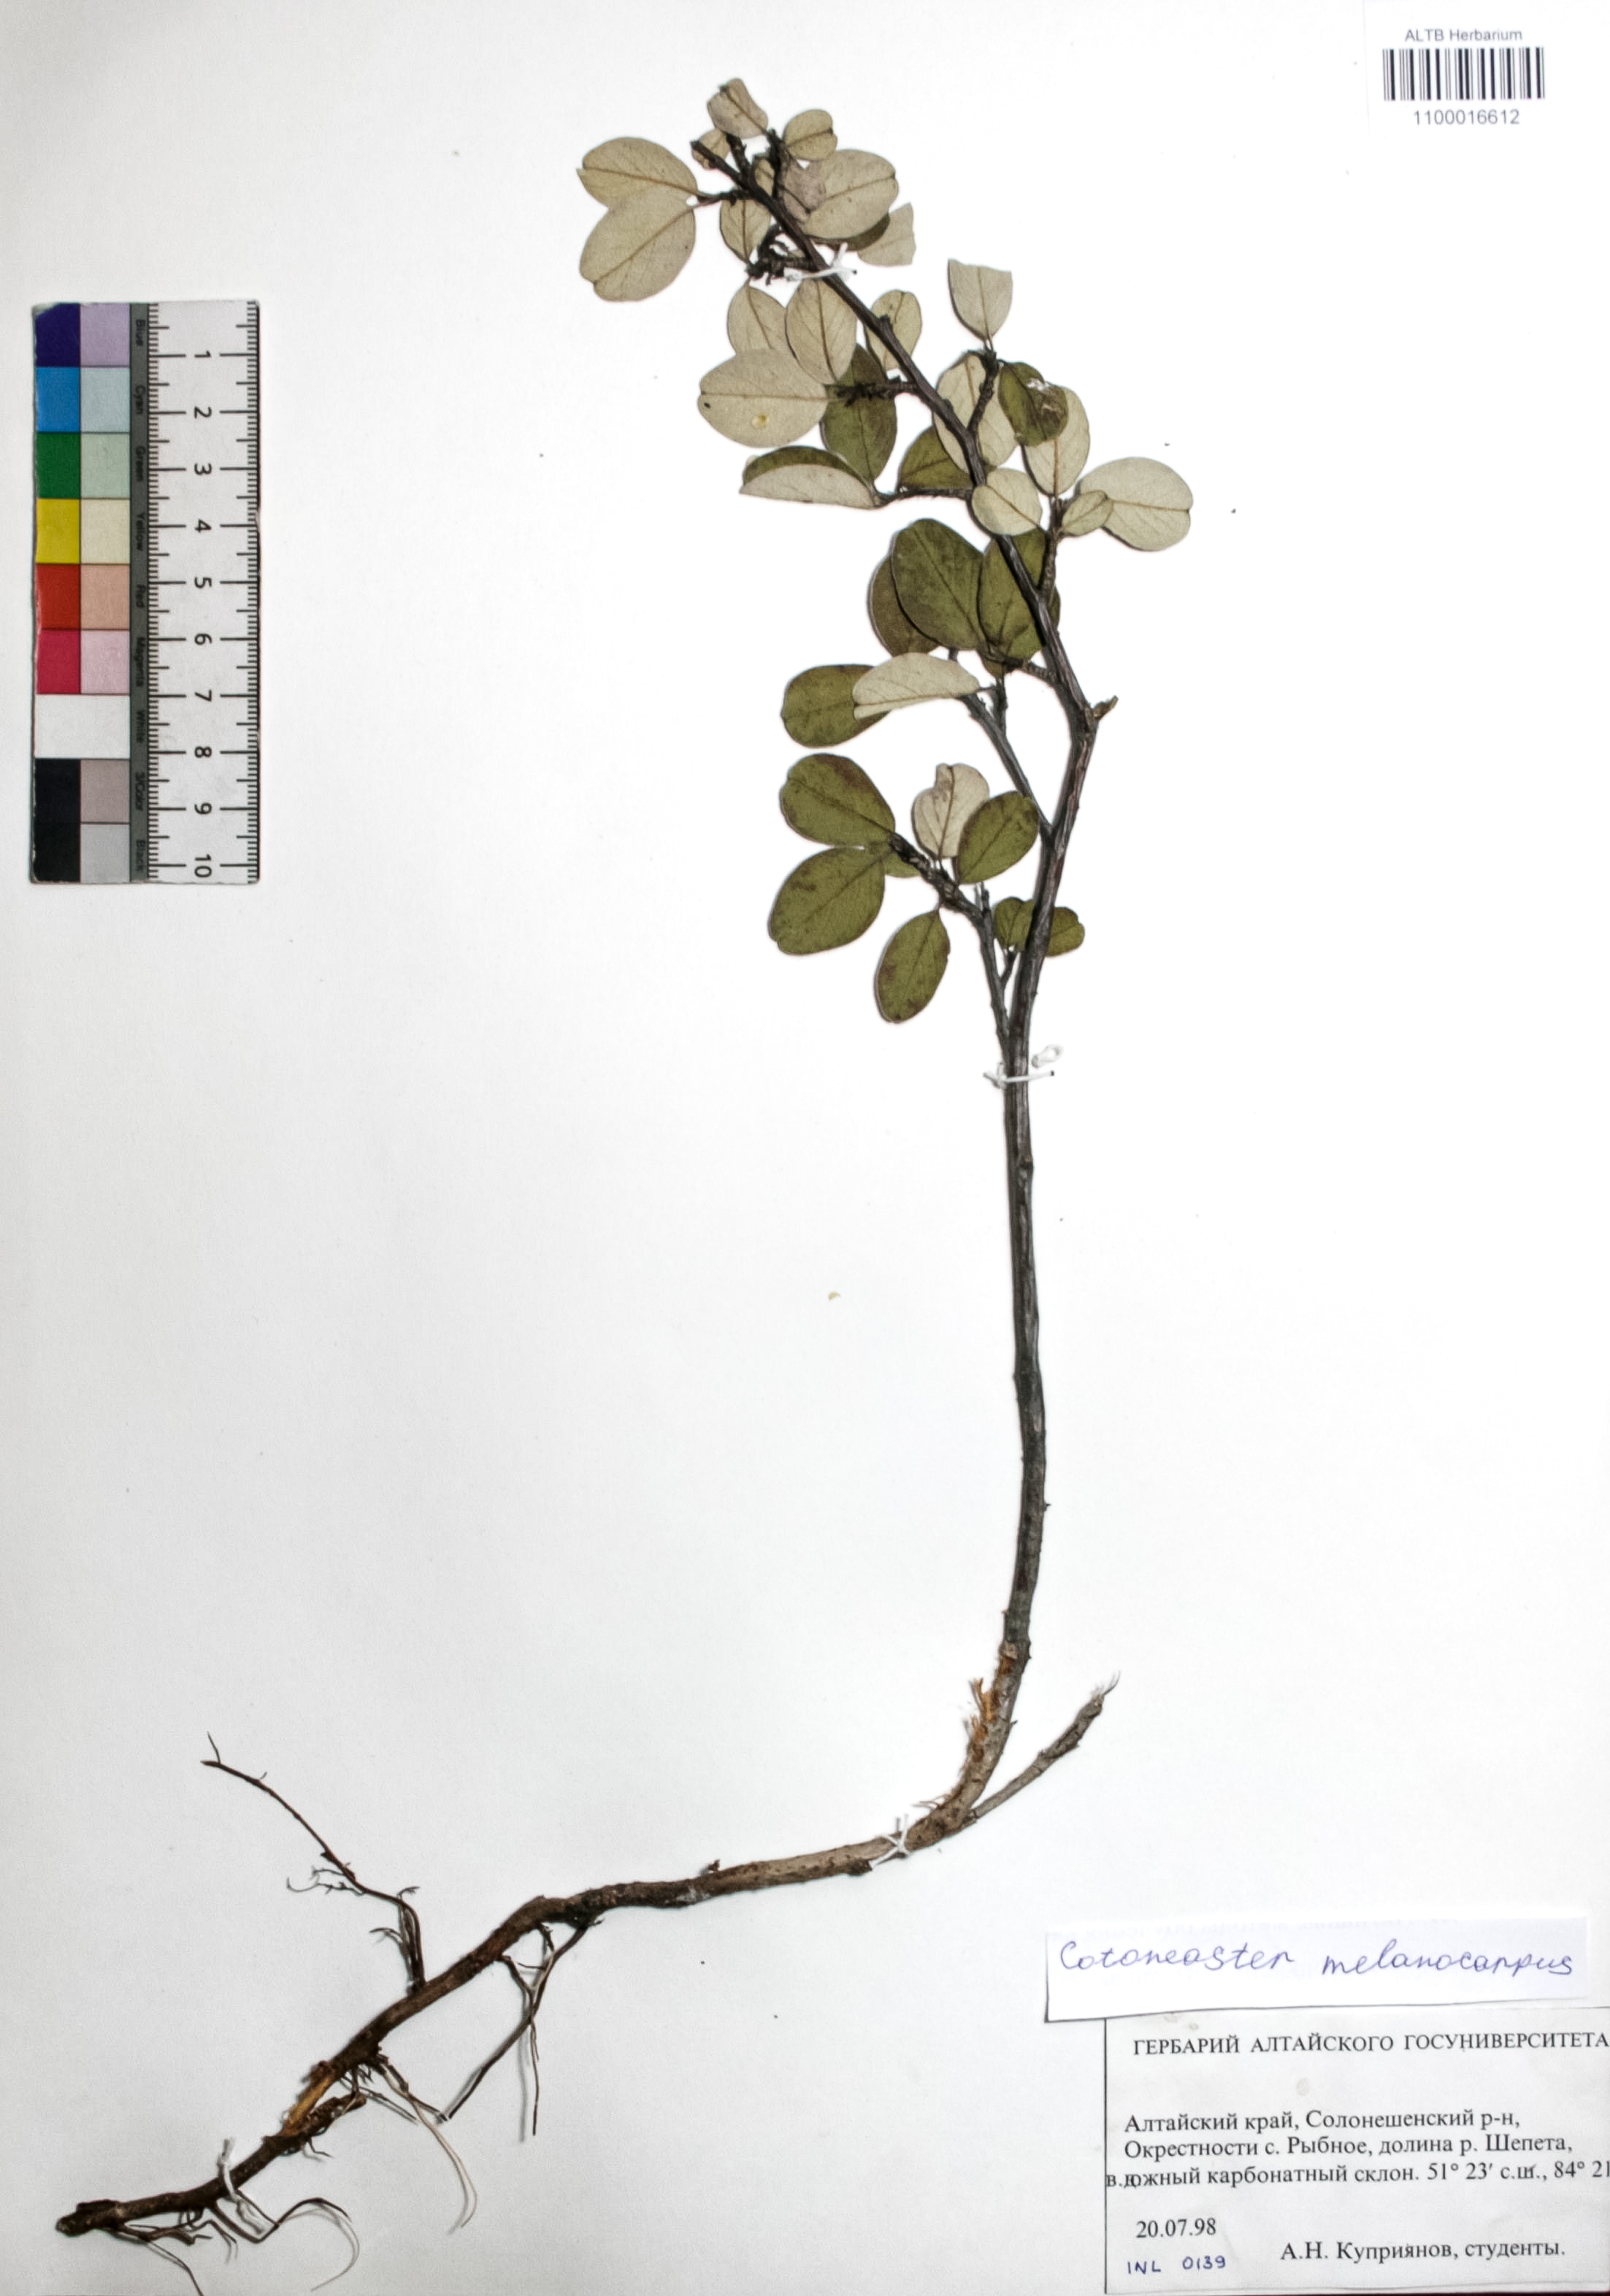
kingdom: Plantae
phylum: Tracheophyta
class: Magnoliopsida
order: Rosales
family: Rosaceae
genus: Cotoneaster
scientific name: Cotoneaster niger
